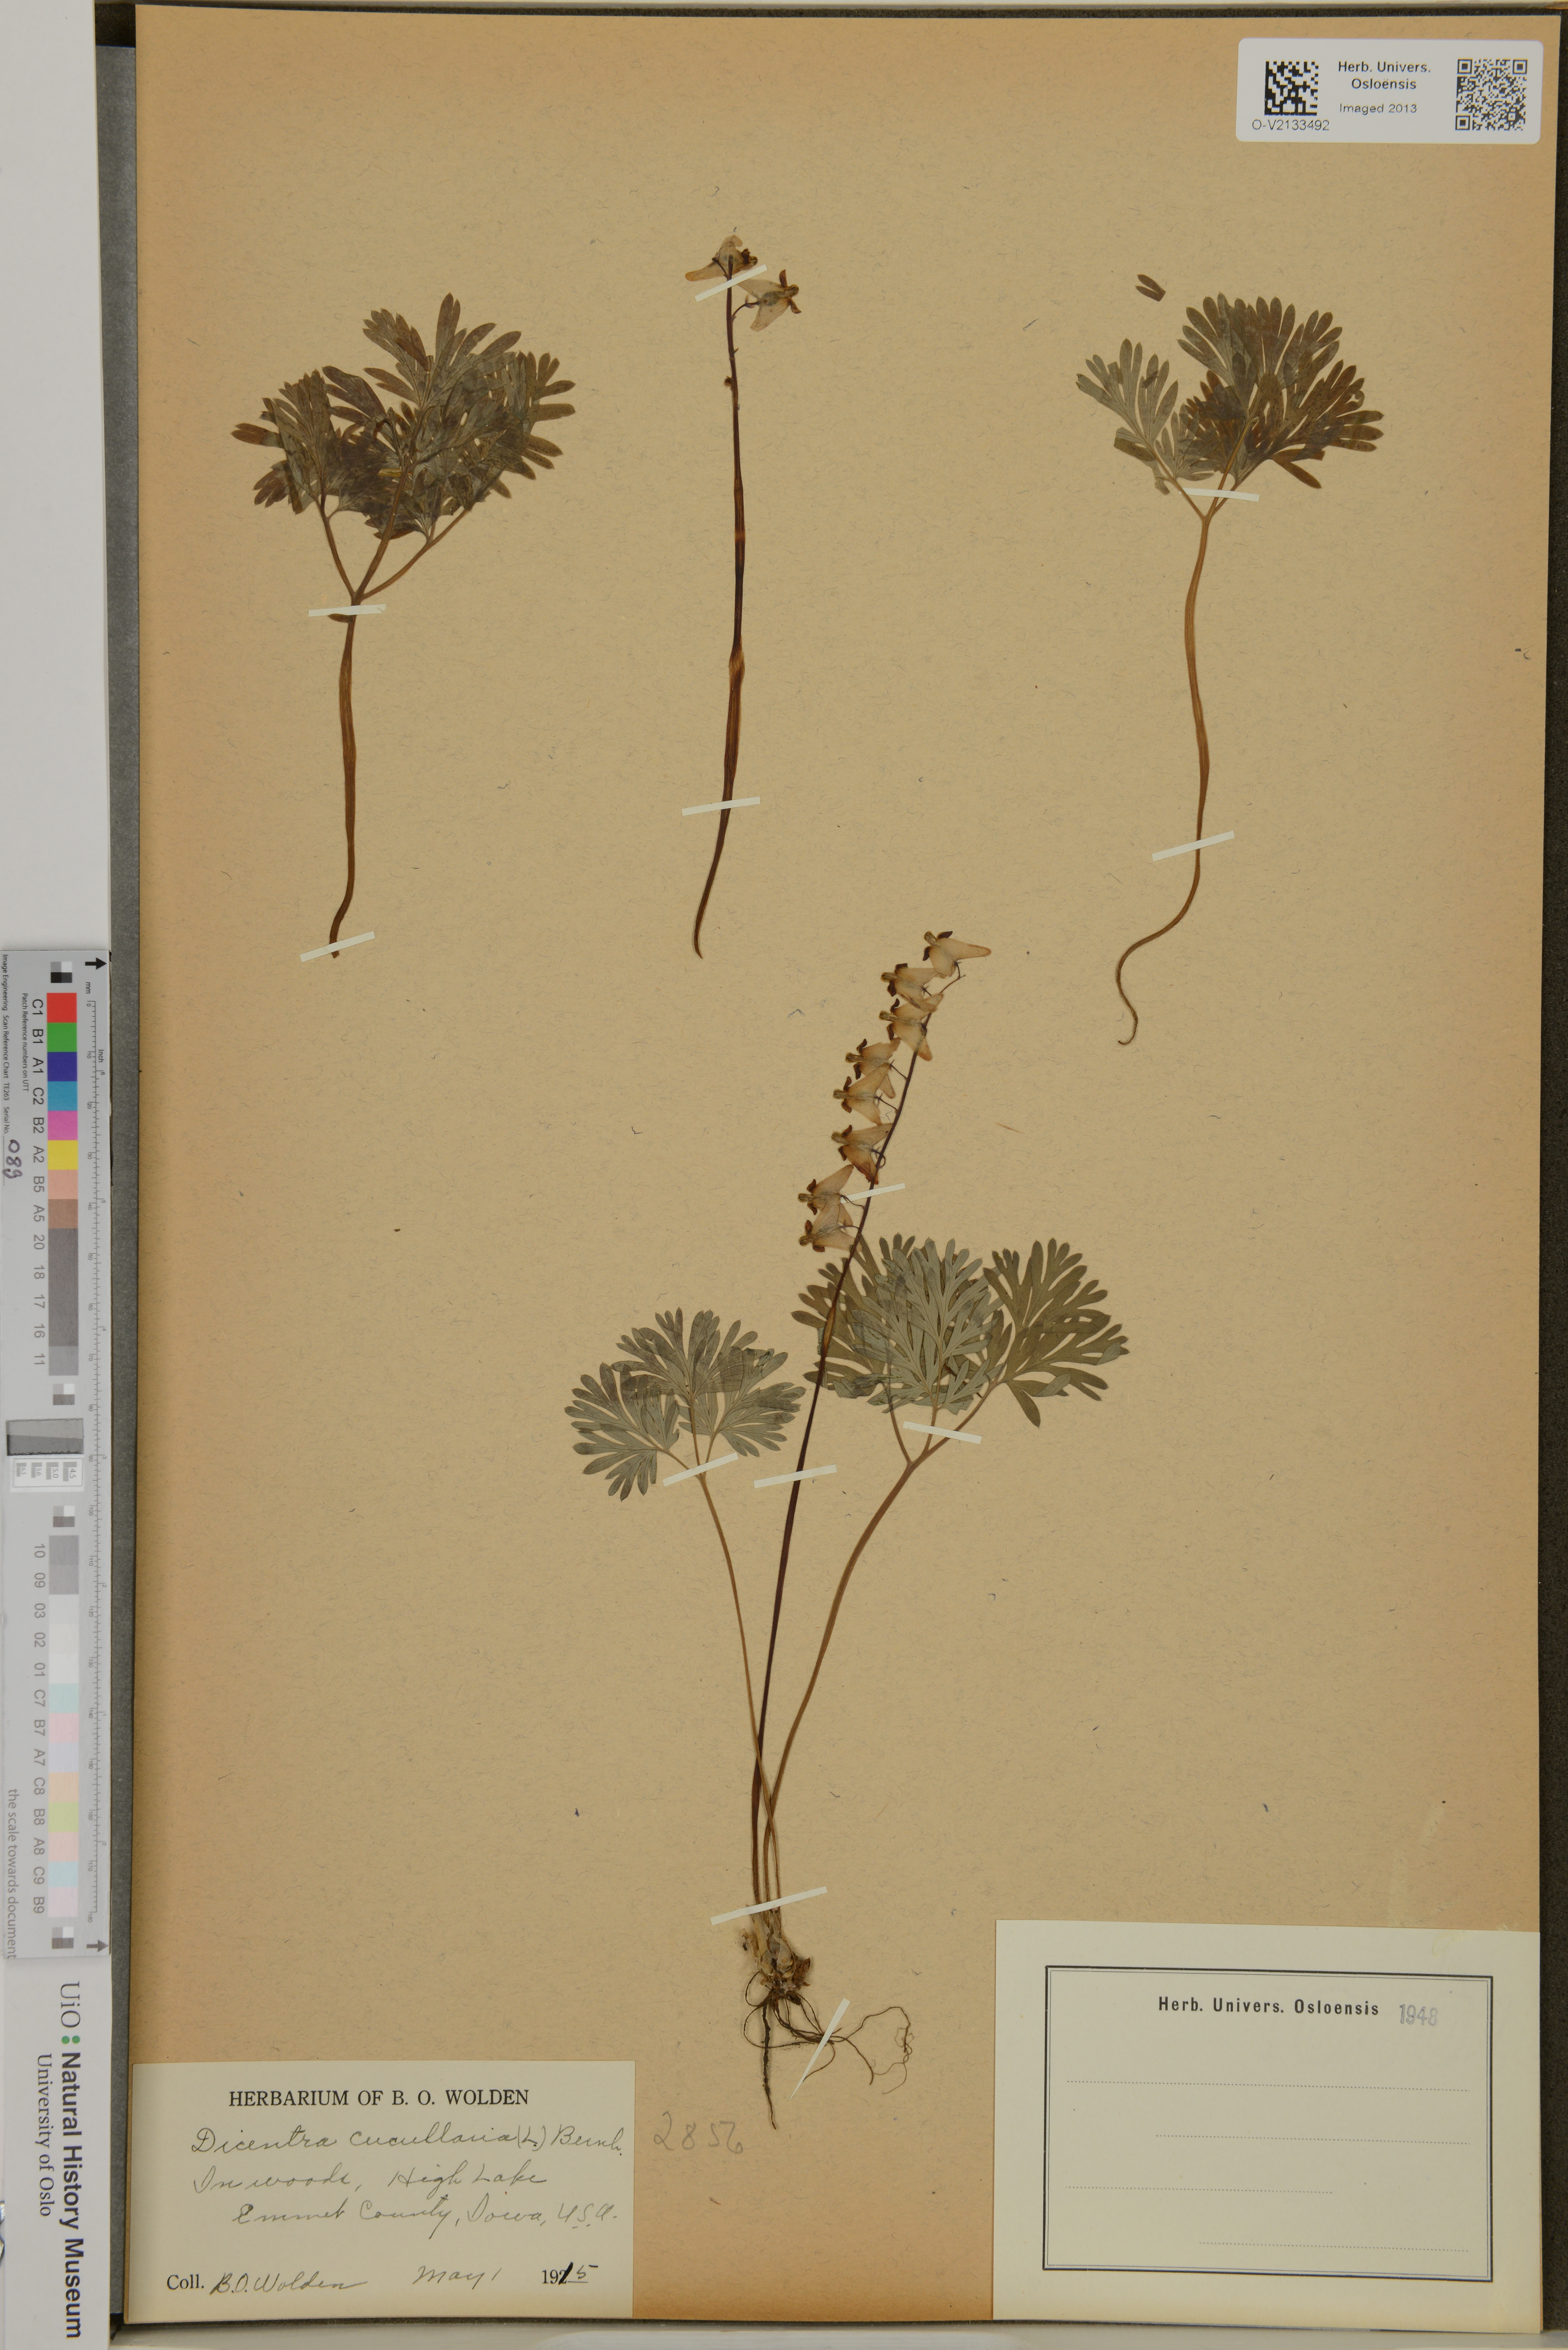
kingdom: Plantae
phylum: Tracheophyta
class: Magnoliopsida
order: Ranunculales
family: Papaveraceae
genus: Dicentra
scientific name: Dicentra cucullaria
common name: Dutchman's breeches
